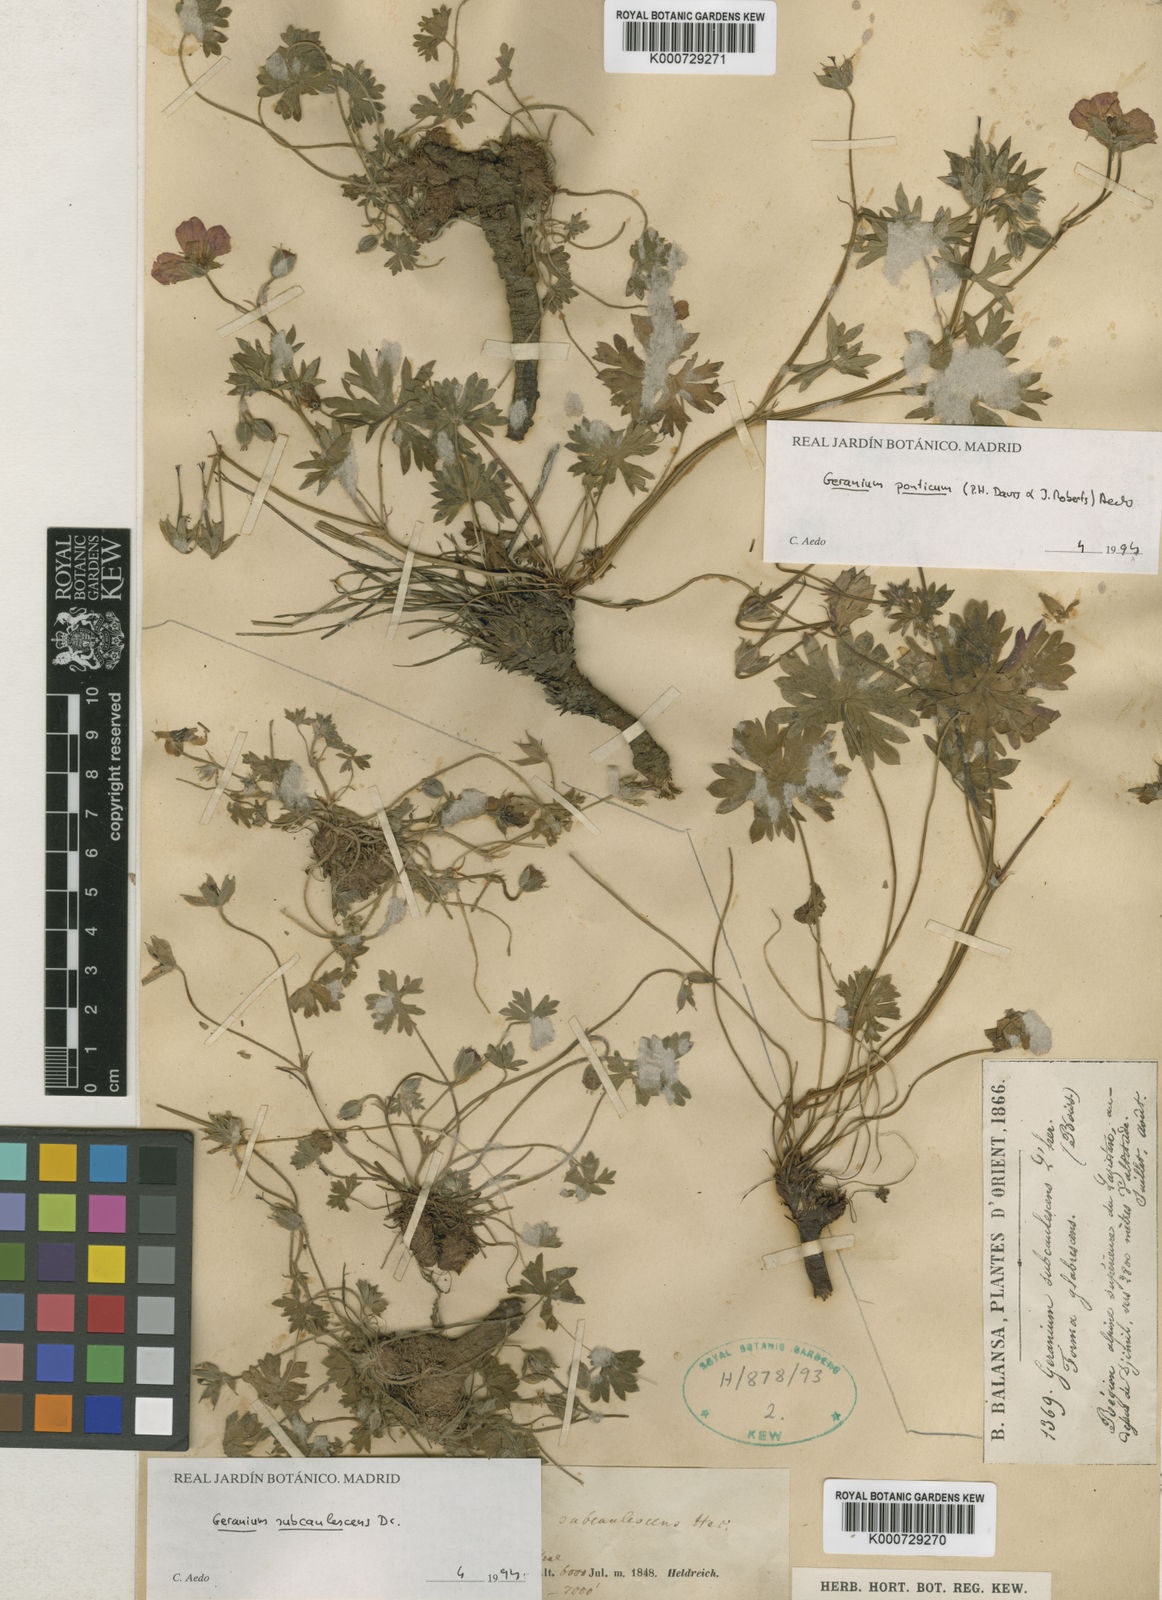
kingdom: Plantae
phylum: Tracheophyta
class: Magnoliopsida
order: Geraniales
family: Geraniaceae
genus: Geranium
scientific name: Geranium ponticum
